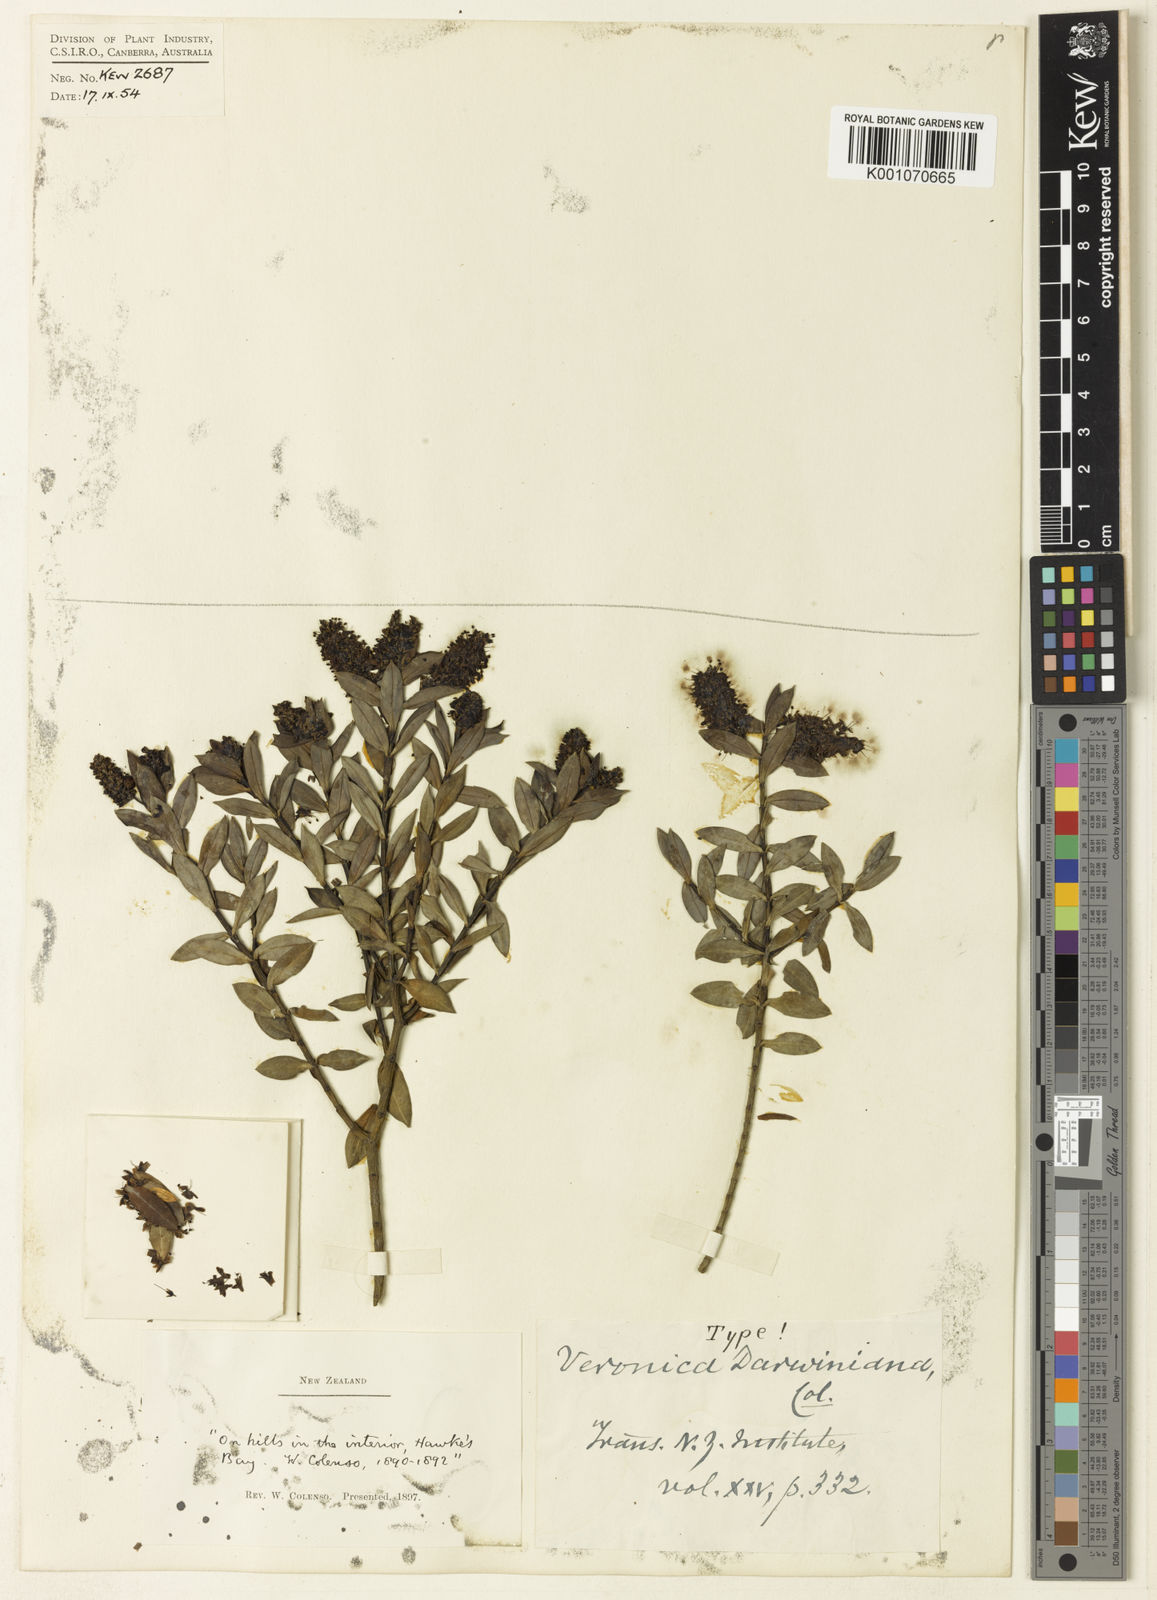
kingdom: Plantae
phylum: Tracheophyta
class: Magnoliopsida
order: Lamiales
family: Plantaginaceae
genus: Veronica
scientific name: Veronica glaucophylla
